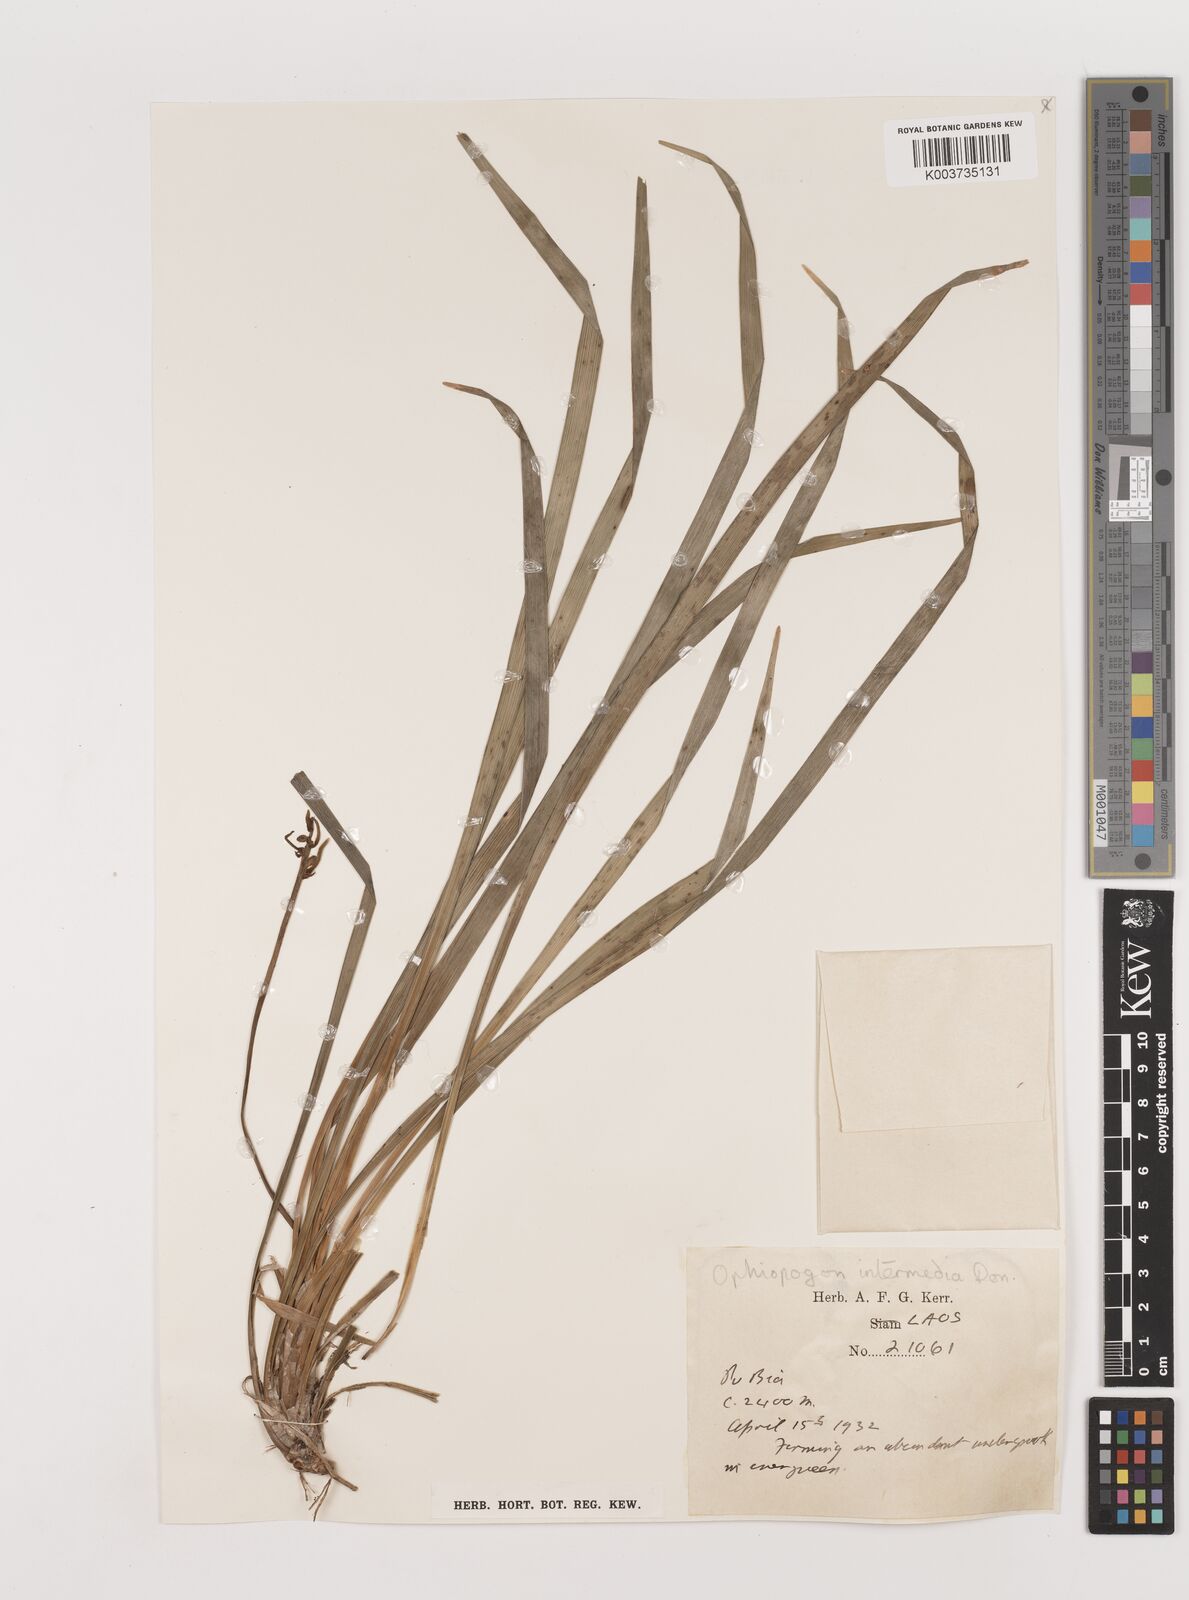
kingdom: Plantae
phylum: Tracheophyta
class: Liliopsida
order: Asparagales
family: Asparagaceae
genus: Ophiopogon
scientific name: Ophiopogon japonicus
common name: Dwarf lilyturf
